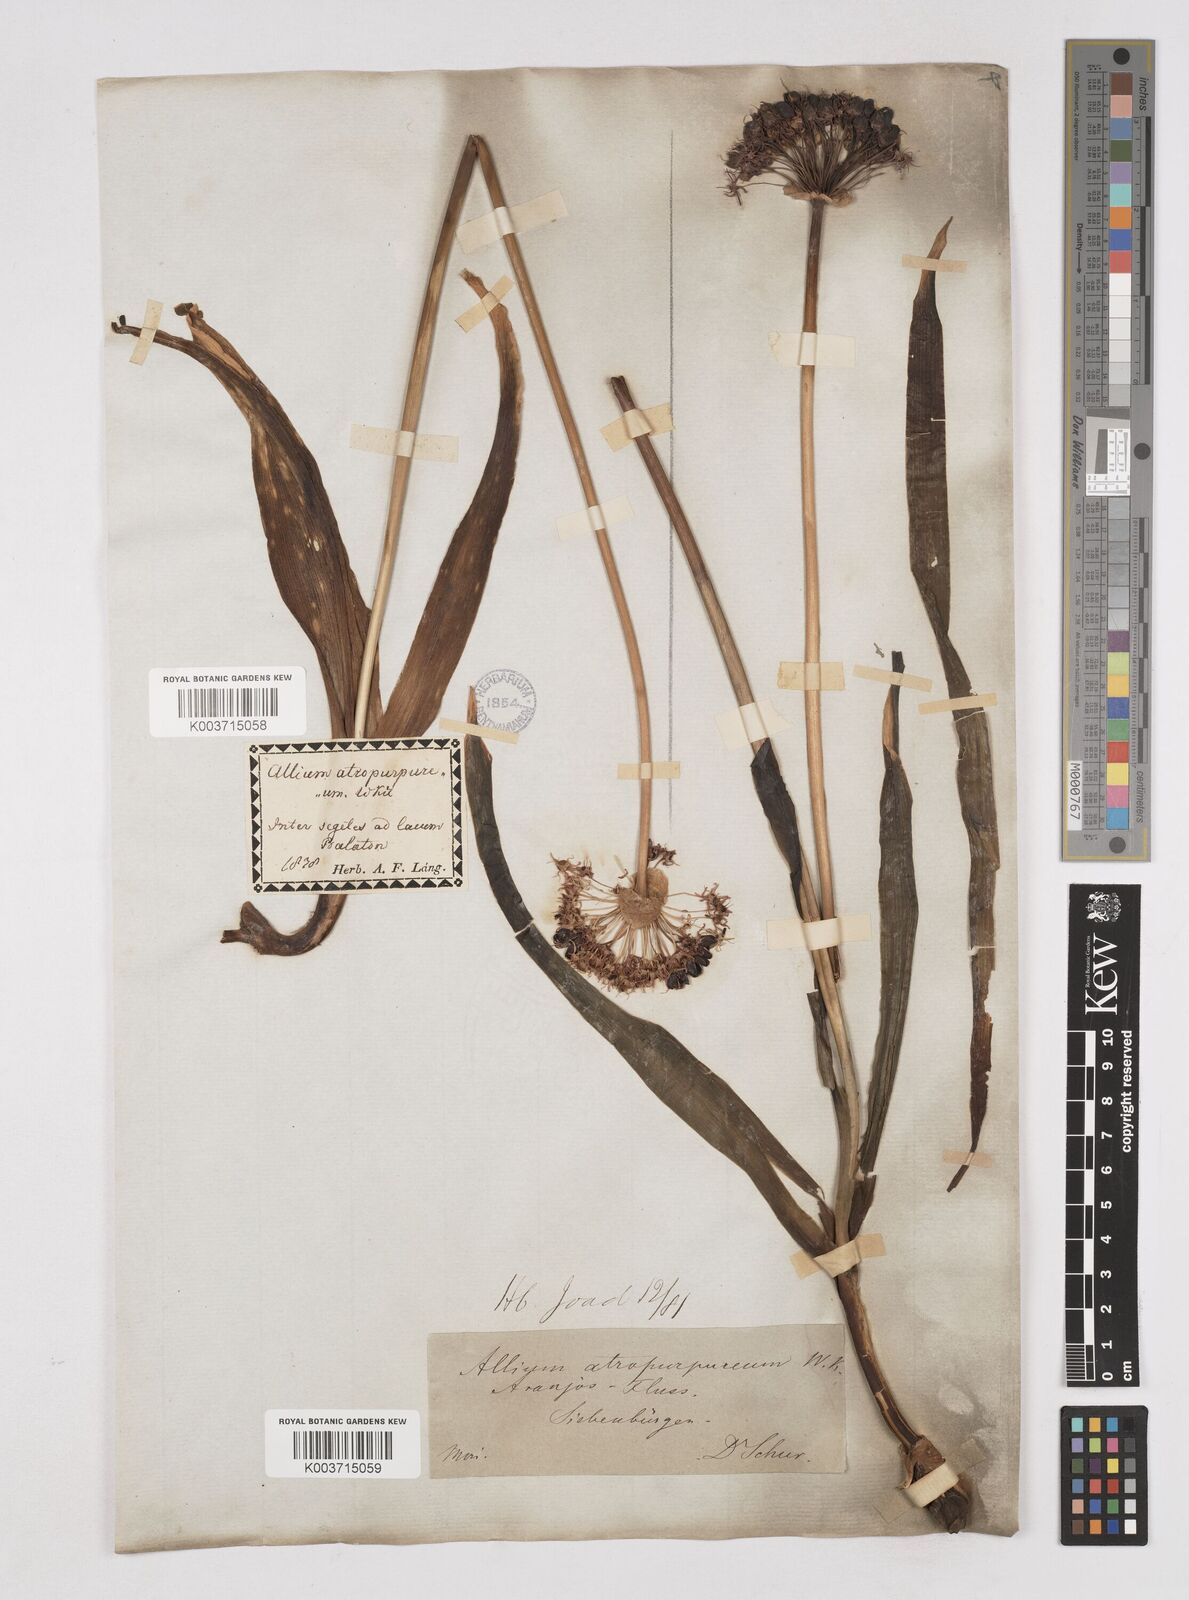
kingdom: Plantae
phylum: Tracheophyta
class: Liliopsida
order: Asparagales
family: Amaryllidaceae
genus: Allium
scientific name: Allium atropurpureum
